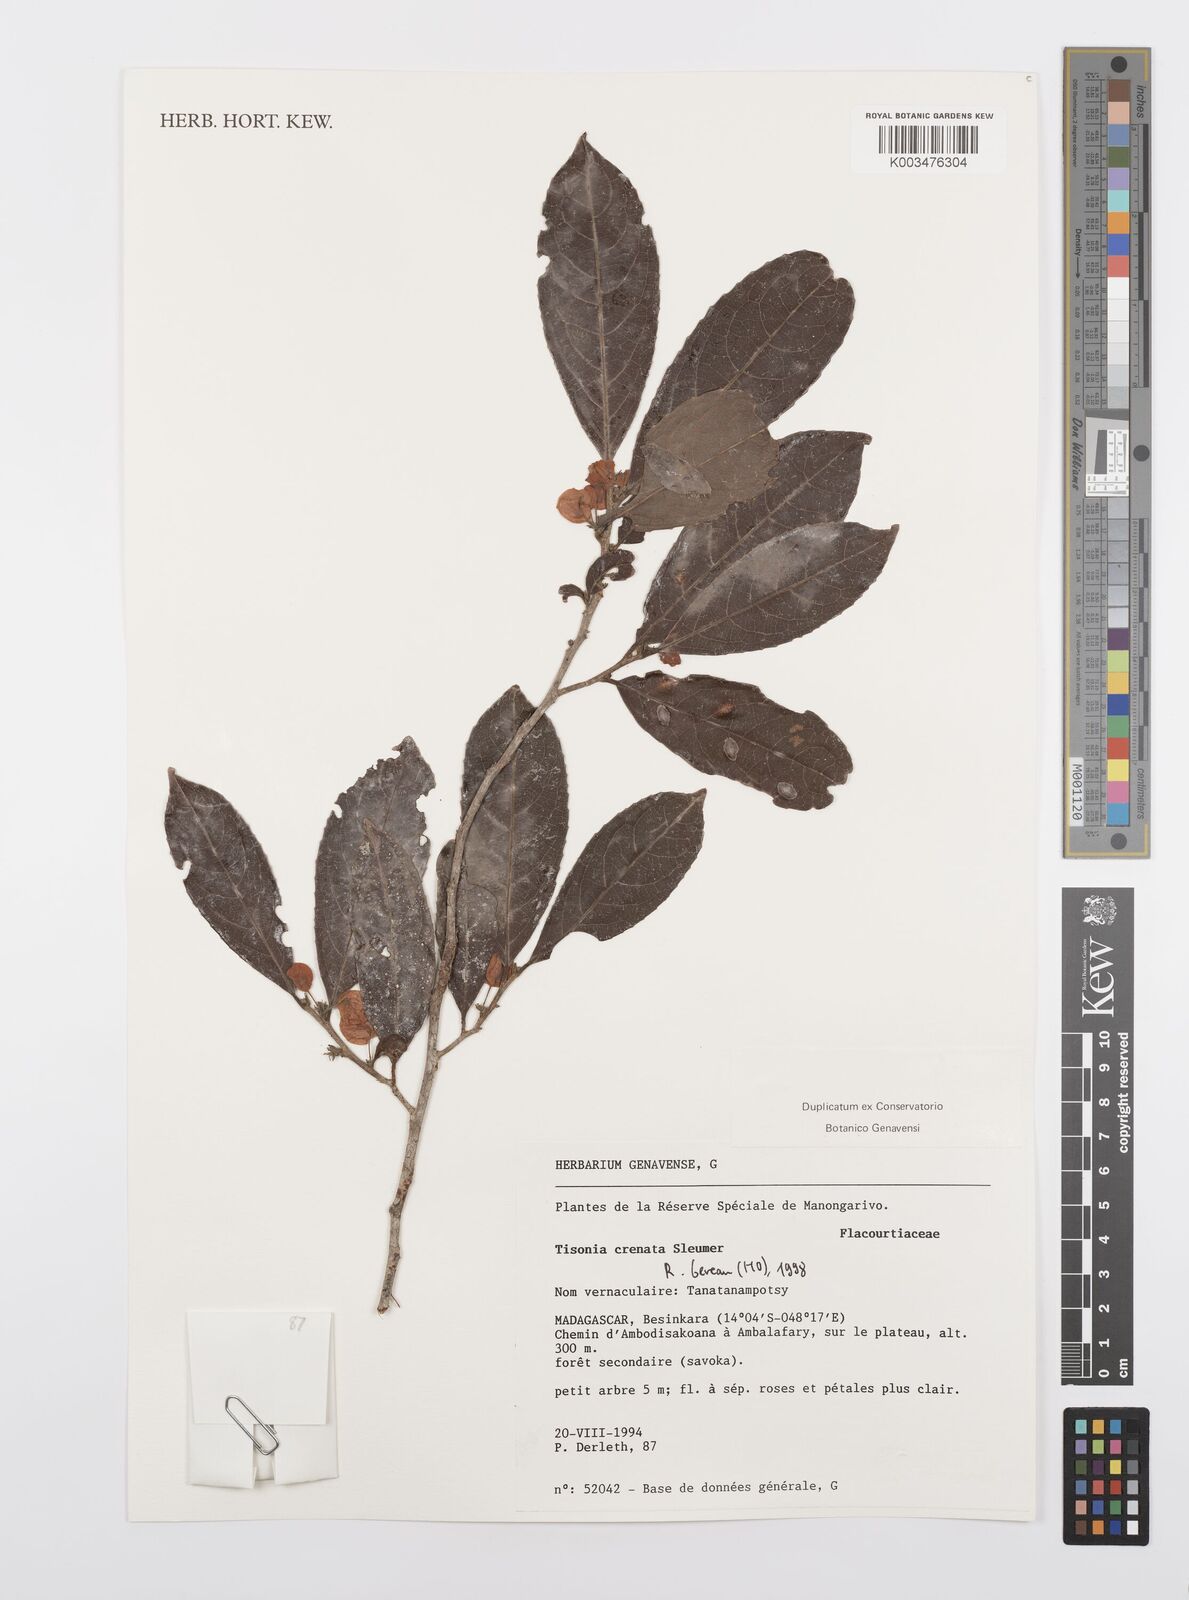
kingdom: Plantae
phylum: Tracheophyta
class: Magnoliopsida
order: Malpighiales
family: Salicaceae
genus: Tisonia
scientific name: Tisonia baronii
